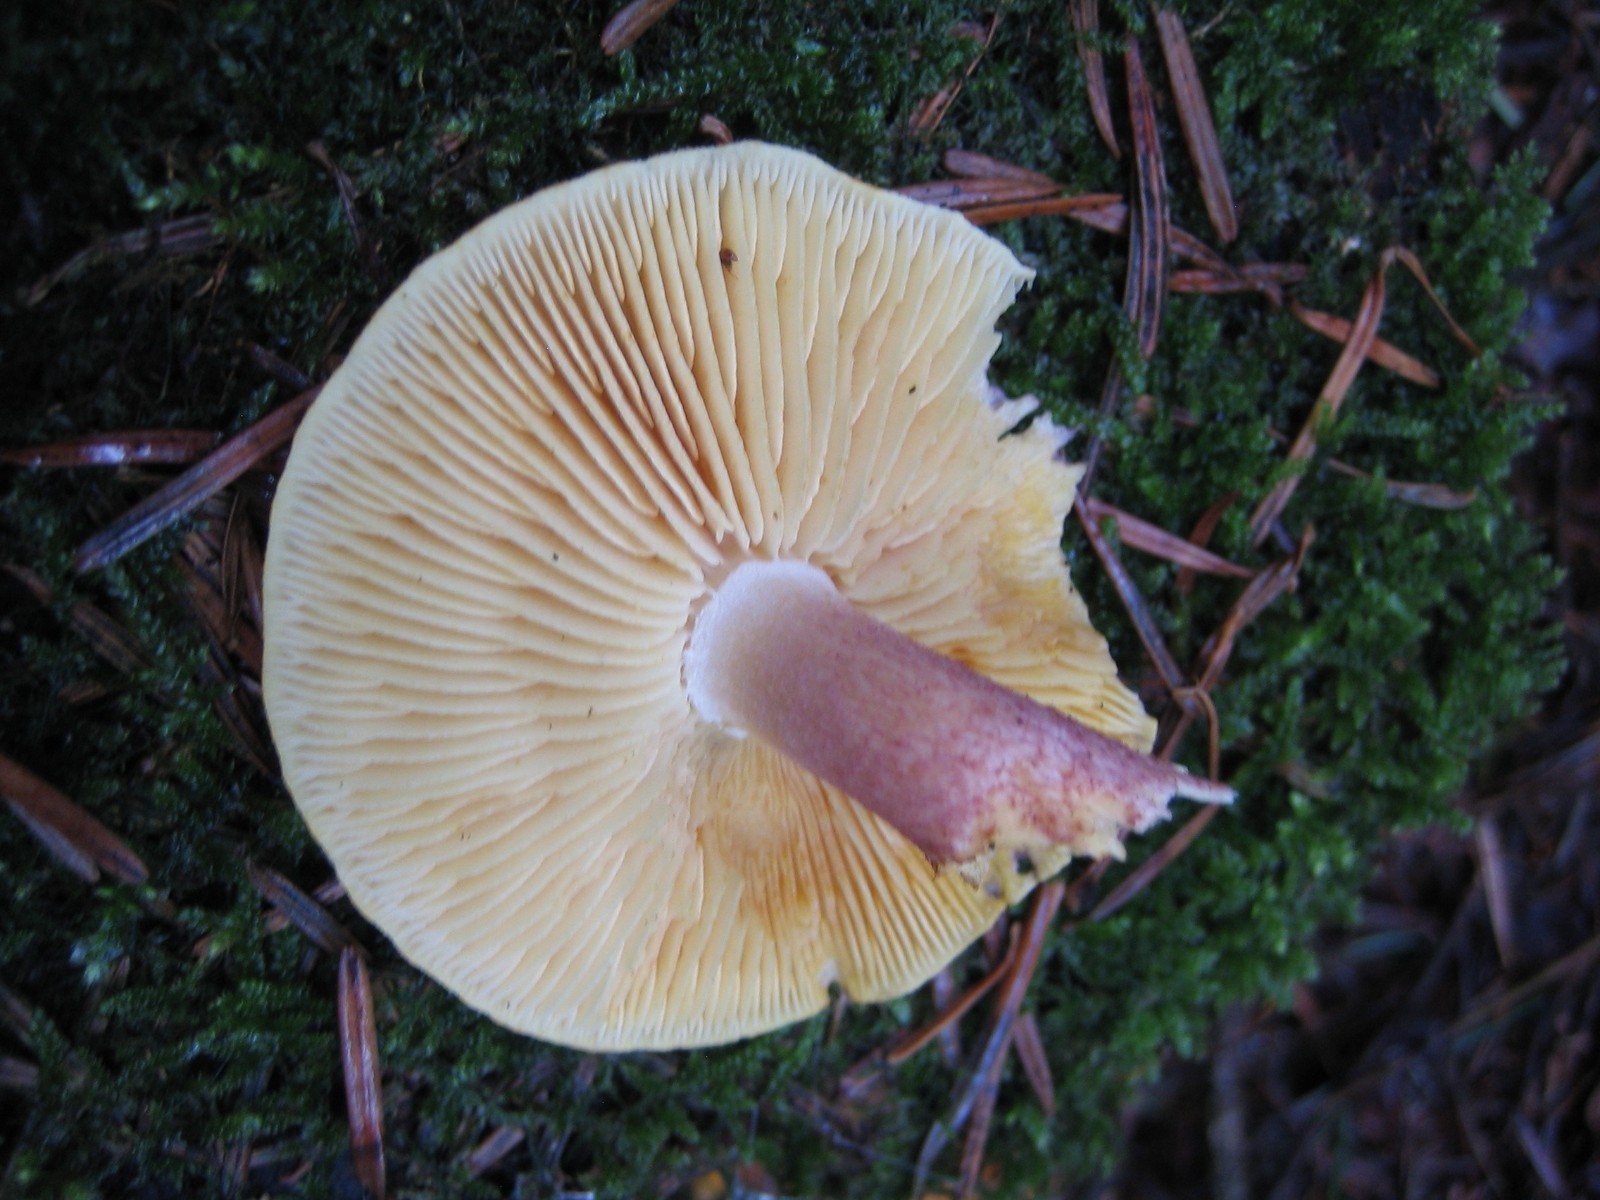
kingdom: Fungi
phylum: Basidiomycota
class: Agaricomycetes
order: Agaricales
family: Tricholomataceae
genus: Tricholomopsis
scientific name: Tricholomopsis rutilans
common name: purpur-væbnerhat
